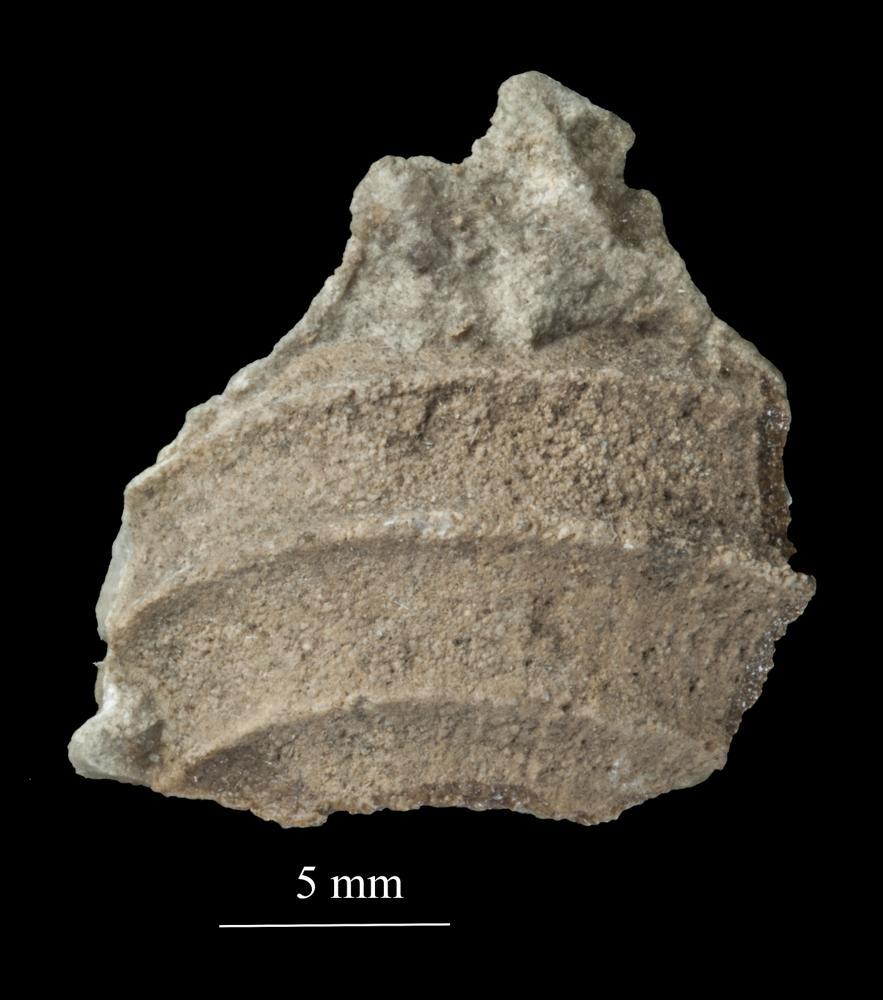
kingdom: Animalia
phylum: Mollusca
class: Gastropoda
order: Trochida
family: Trochidae
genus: Trochus
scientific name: Trochus
